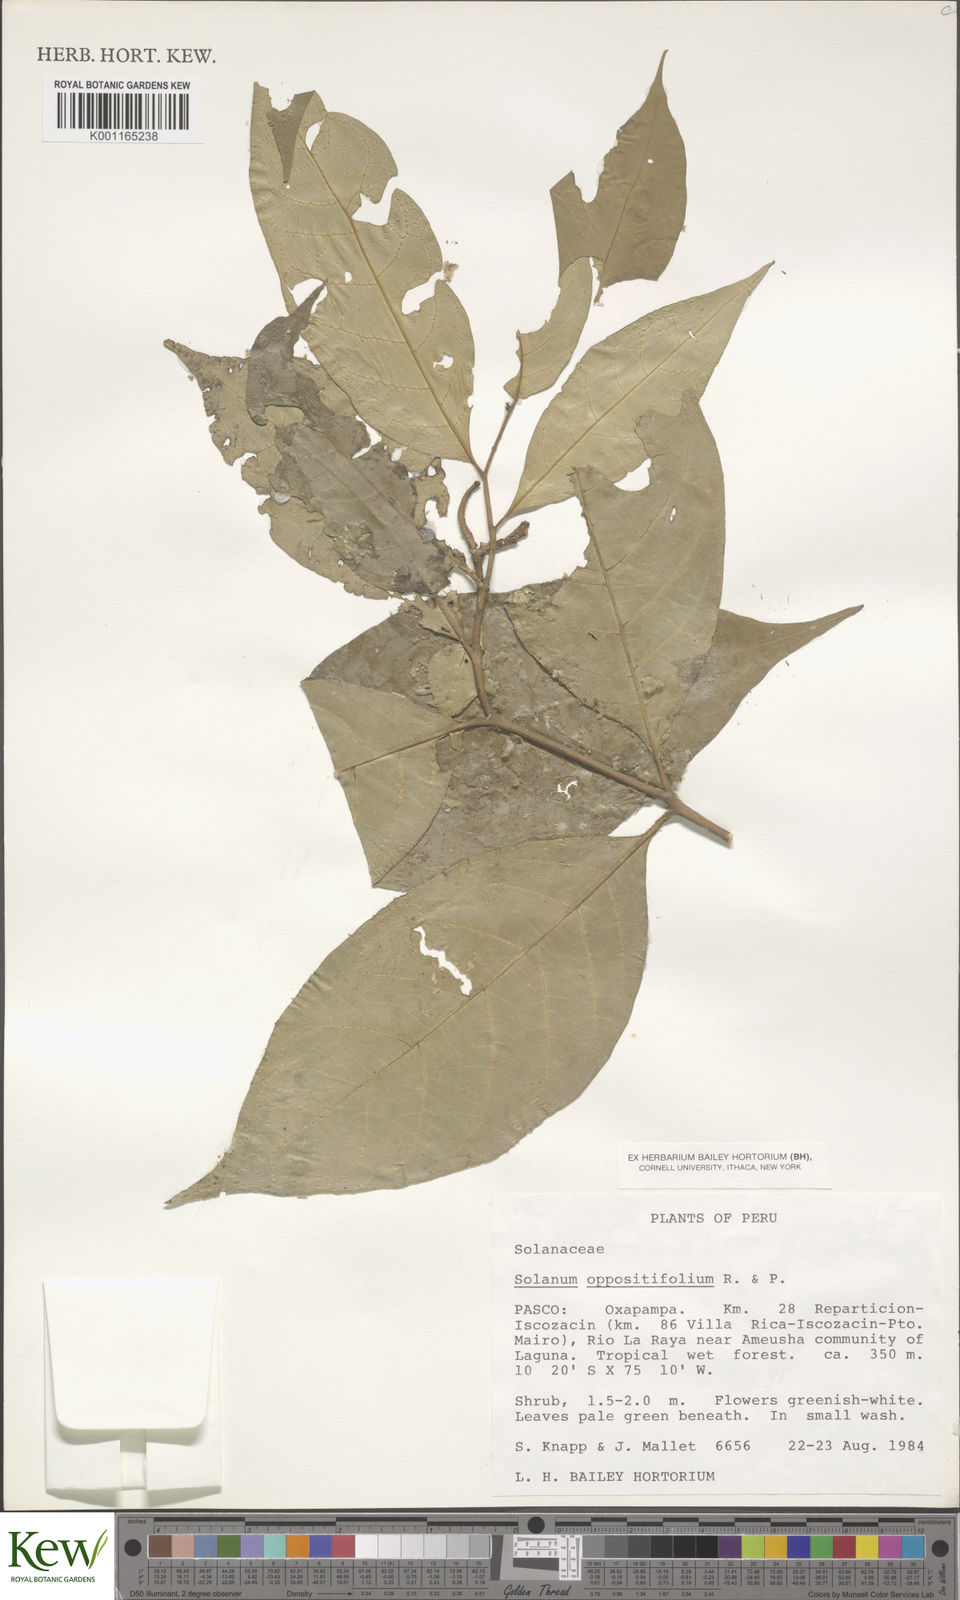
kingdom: Plantae
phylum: Tracheophyta
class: Magnoliopsida
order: Solanales
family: Solanaceae
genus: Solanum
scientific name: Solanum oppositifolium
